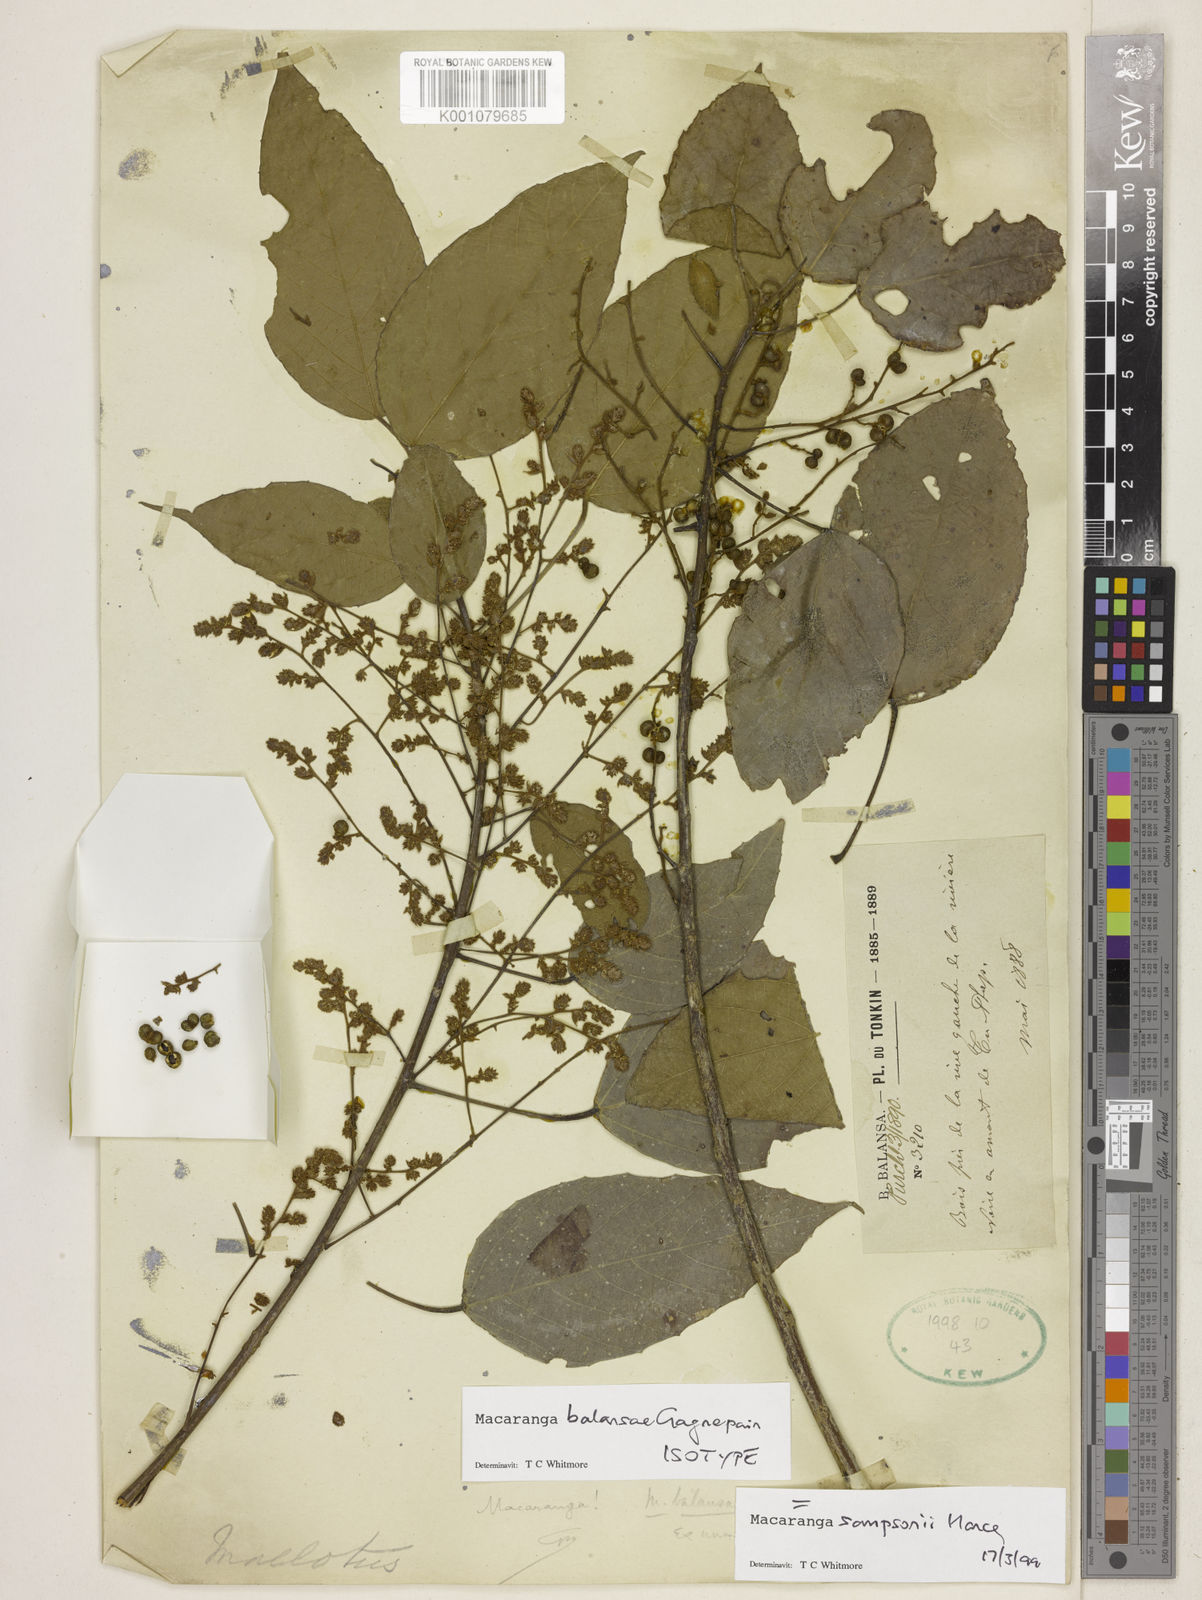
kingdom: Plantae
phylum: Tracheophyta
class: Magnoliopsida
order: Malpighiales
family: Euphorbiaceae
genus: Macaranga
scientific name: Macaranga sampsonii
